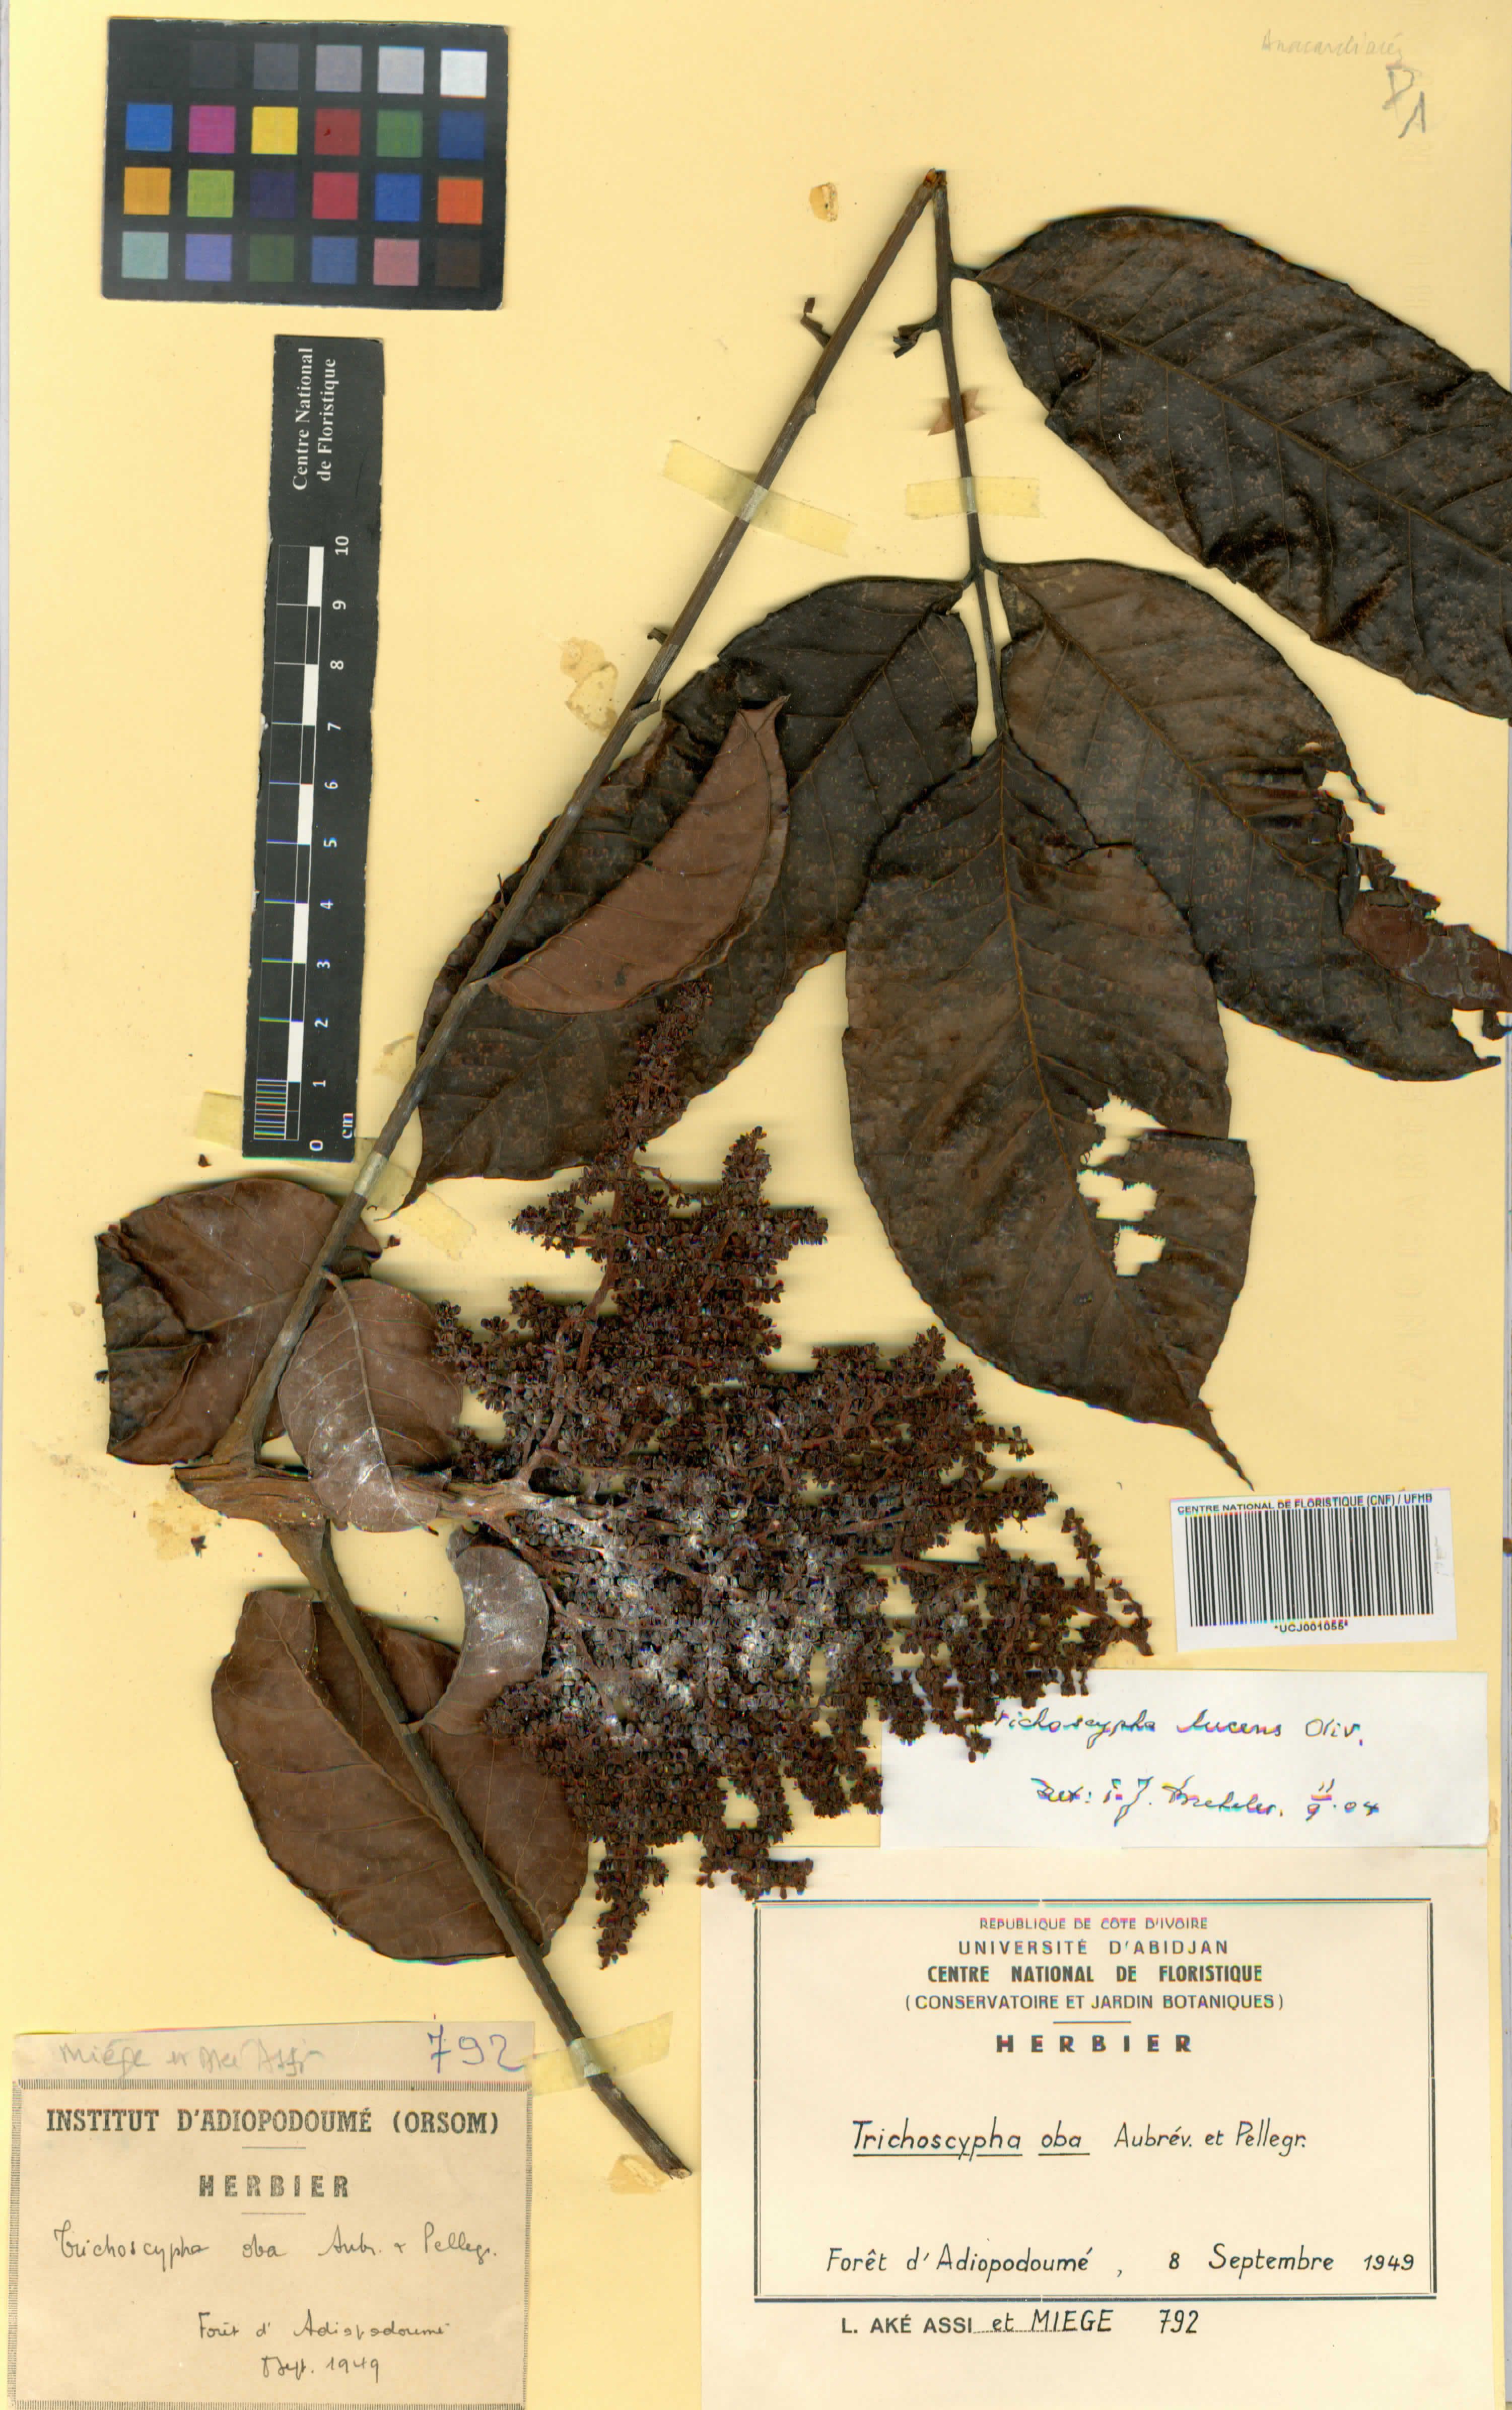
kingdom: Plantae
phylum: Tracheophyta
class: Magnoliopsida
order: Sapindales
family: Anacardiaceae
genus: Trichoscypha
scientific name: Trichoscypha lucens
